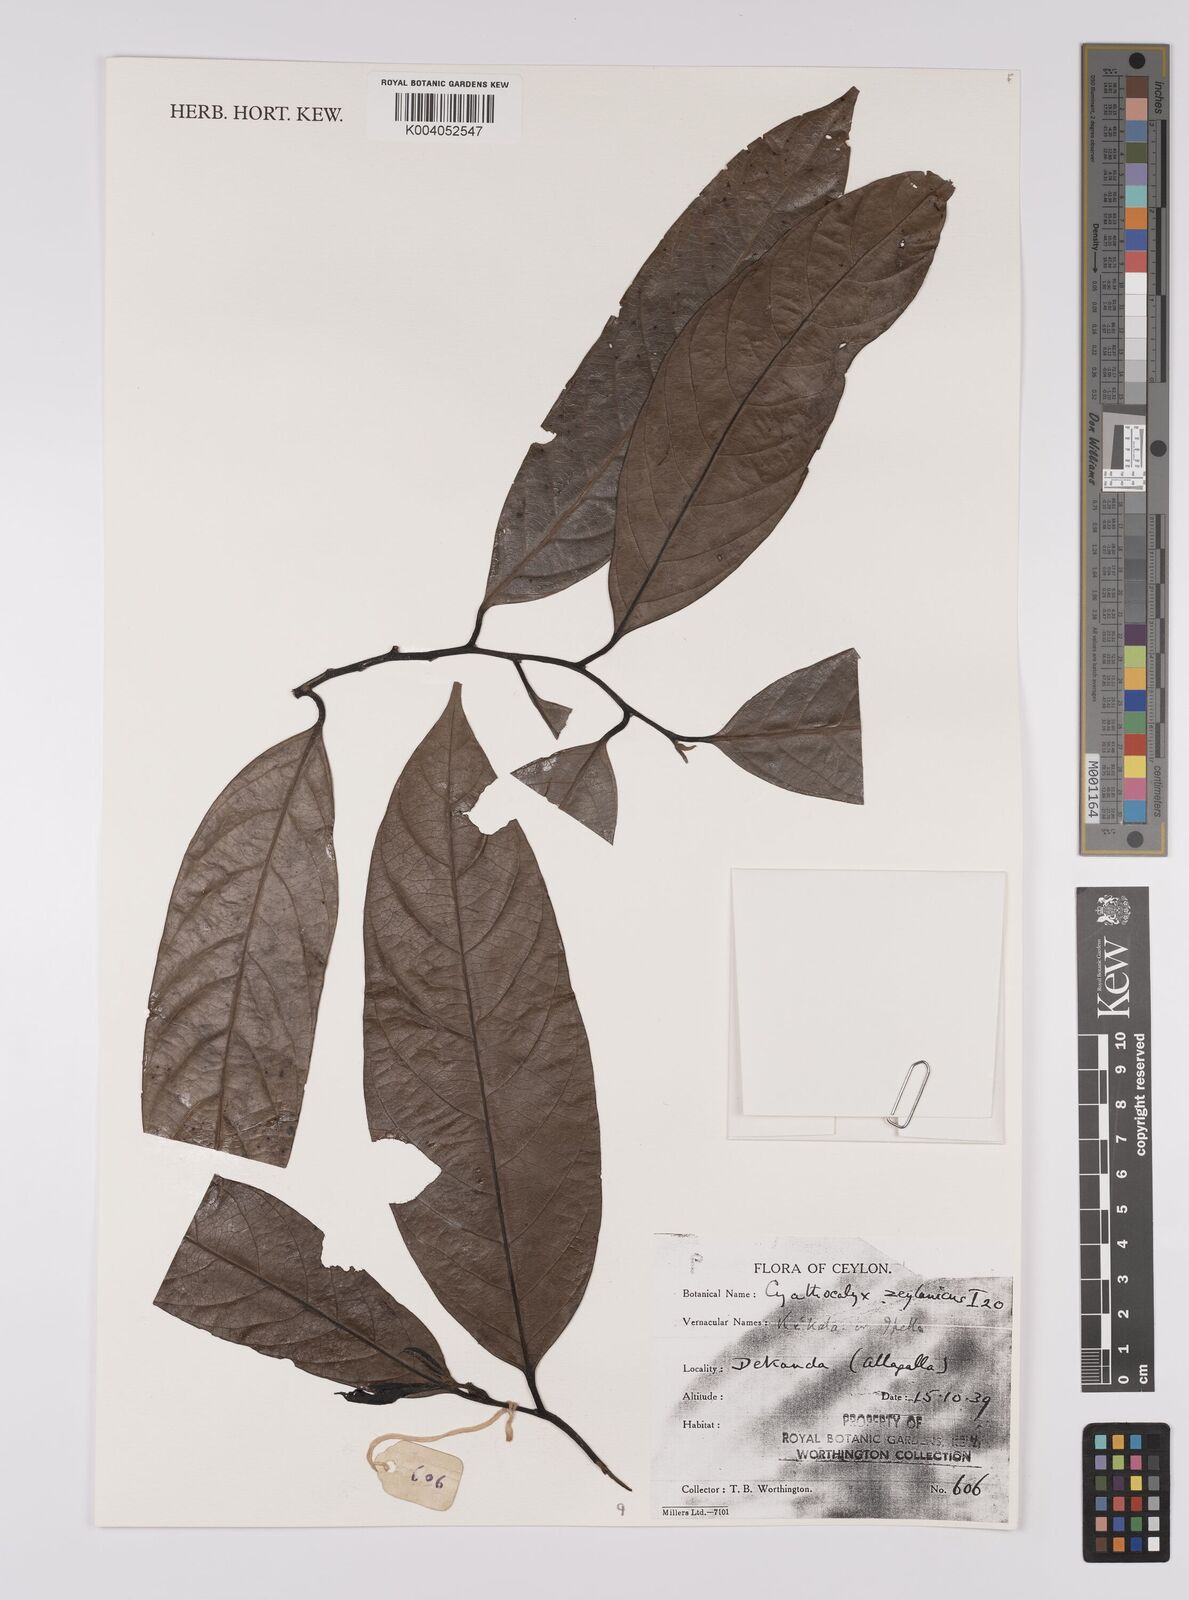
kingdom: Plantae
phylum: Tracheophyta
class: Magnoliopsida
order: Magnoliales
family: Annonaceae
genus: Cyathocalyx
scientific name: Cyathocalyx zeylanicus
